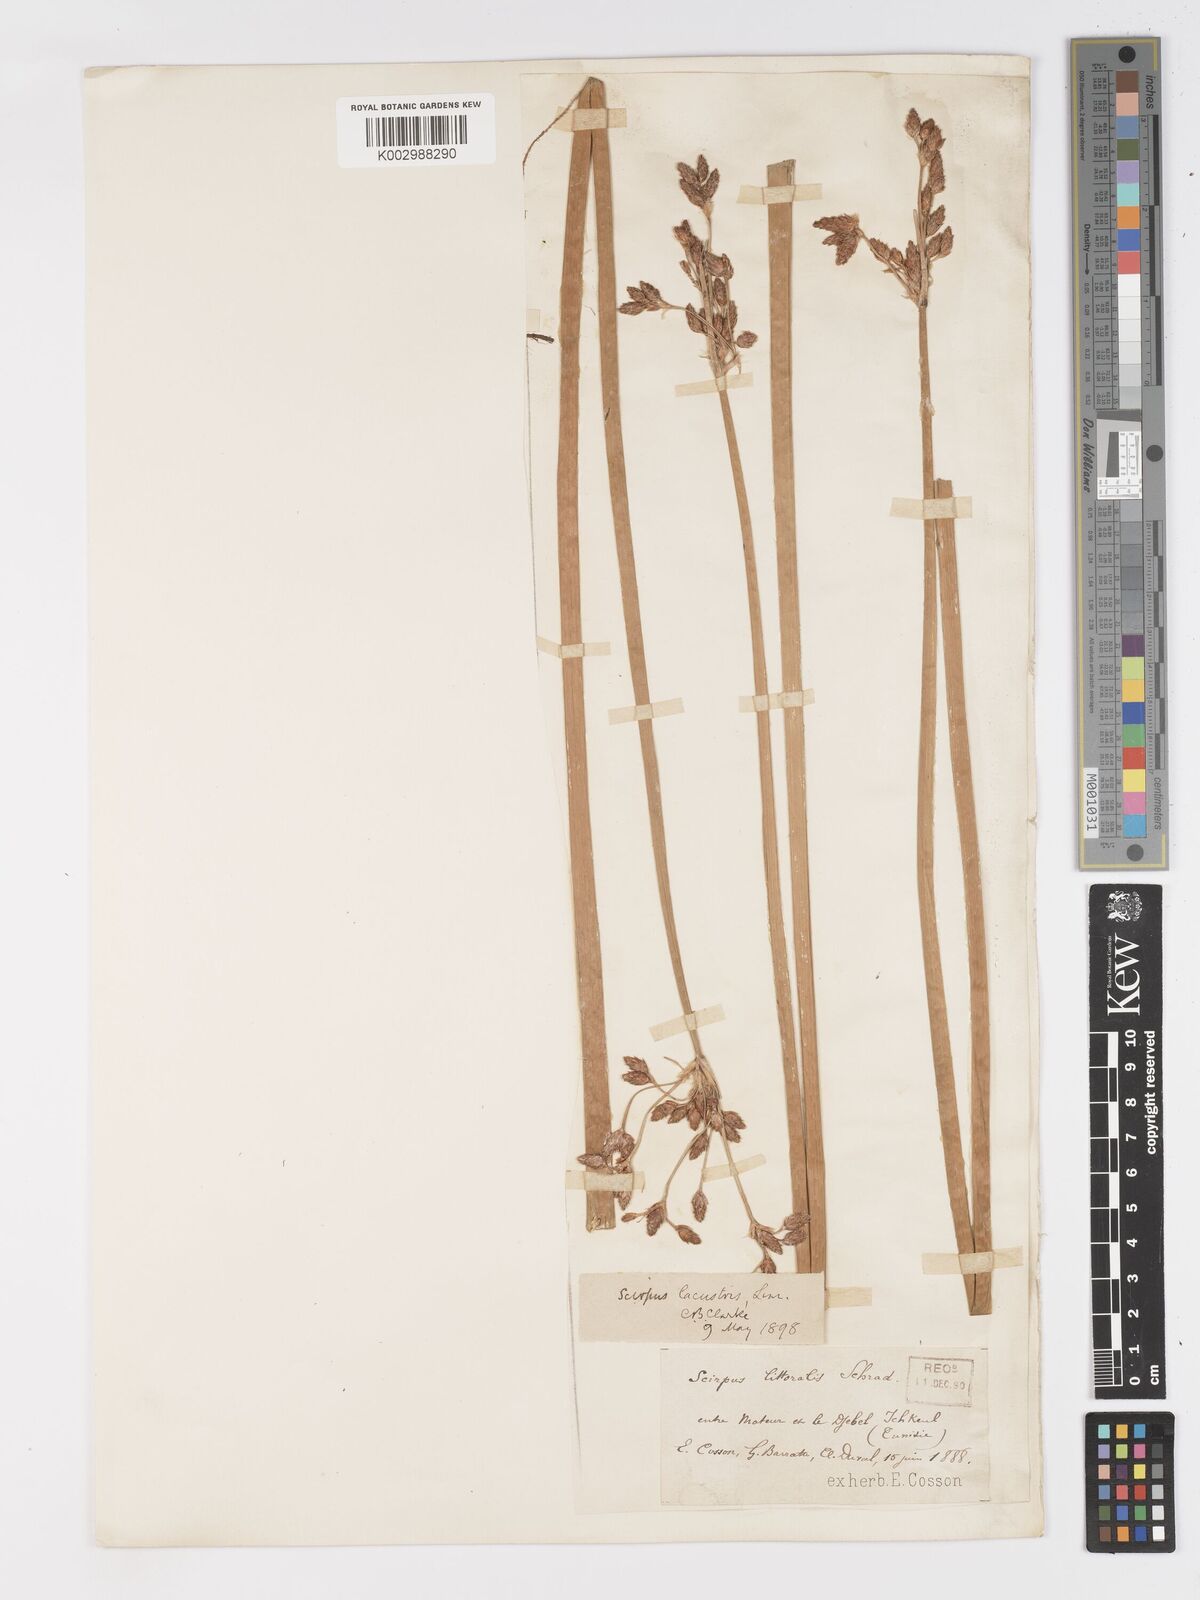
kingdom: Plantae
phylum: Tracheophyta
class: Liliopsida
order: Poales
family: Cyperaceae
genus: Schoenoplectus
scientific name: Schoenoplectus lacustris
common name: Common club-rush
